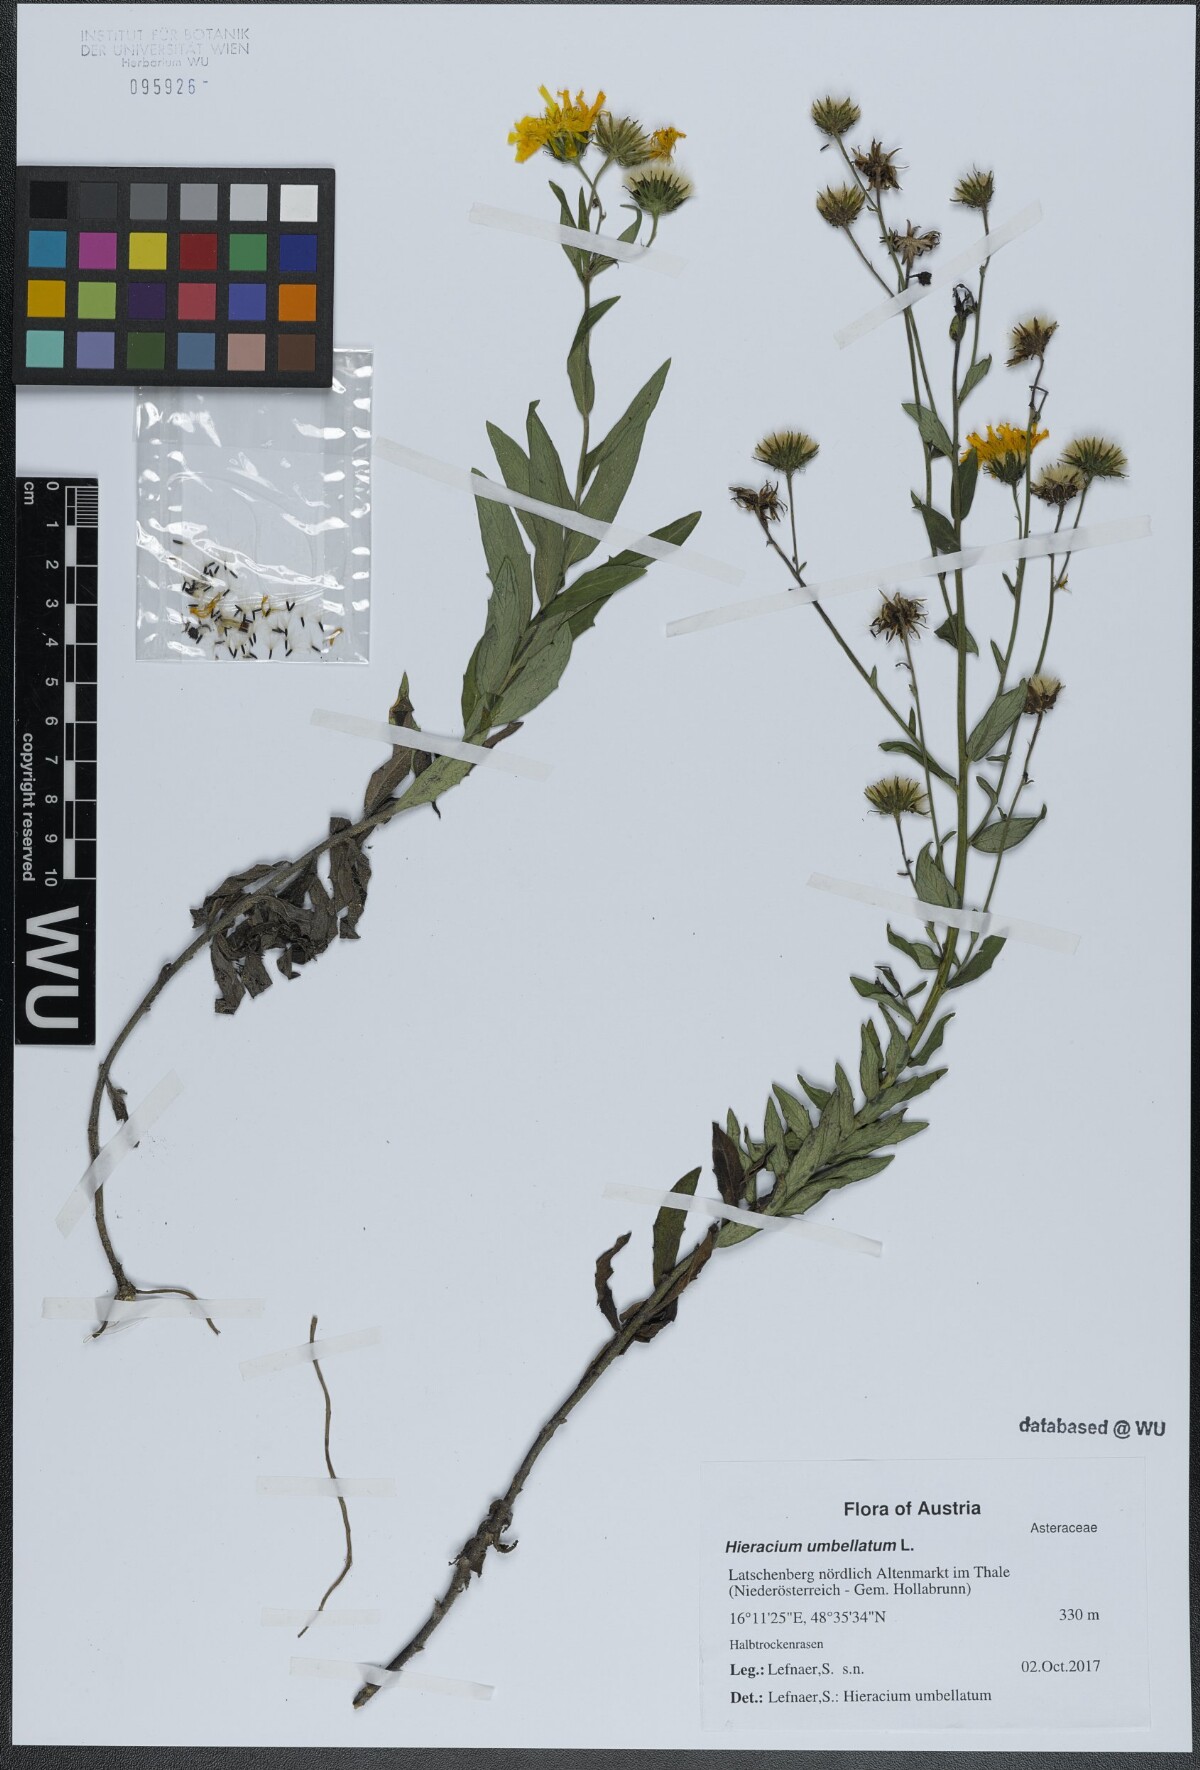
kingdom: Plantae
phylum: Tracheophyta
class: Magnoliopsida
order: Asterales
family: Asteraceae
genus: Hieracium
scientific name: Hieracium umbellatum
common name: Northern hawkweed
